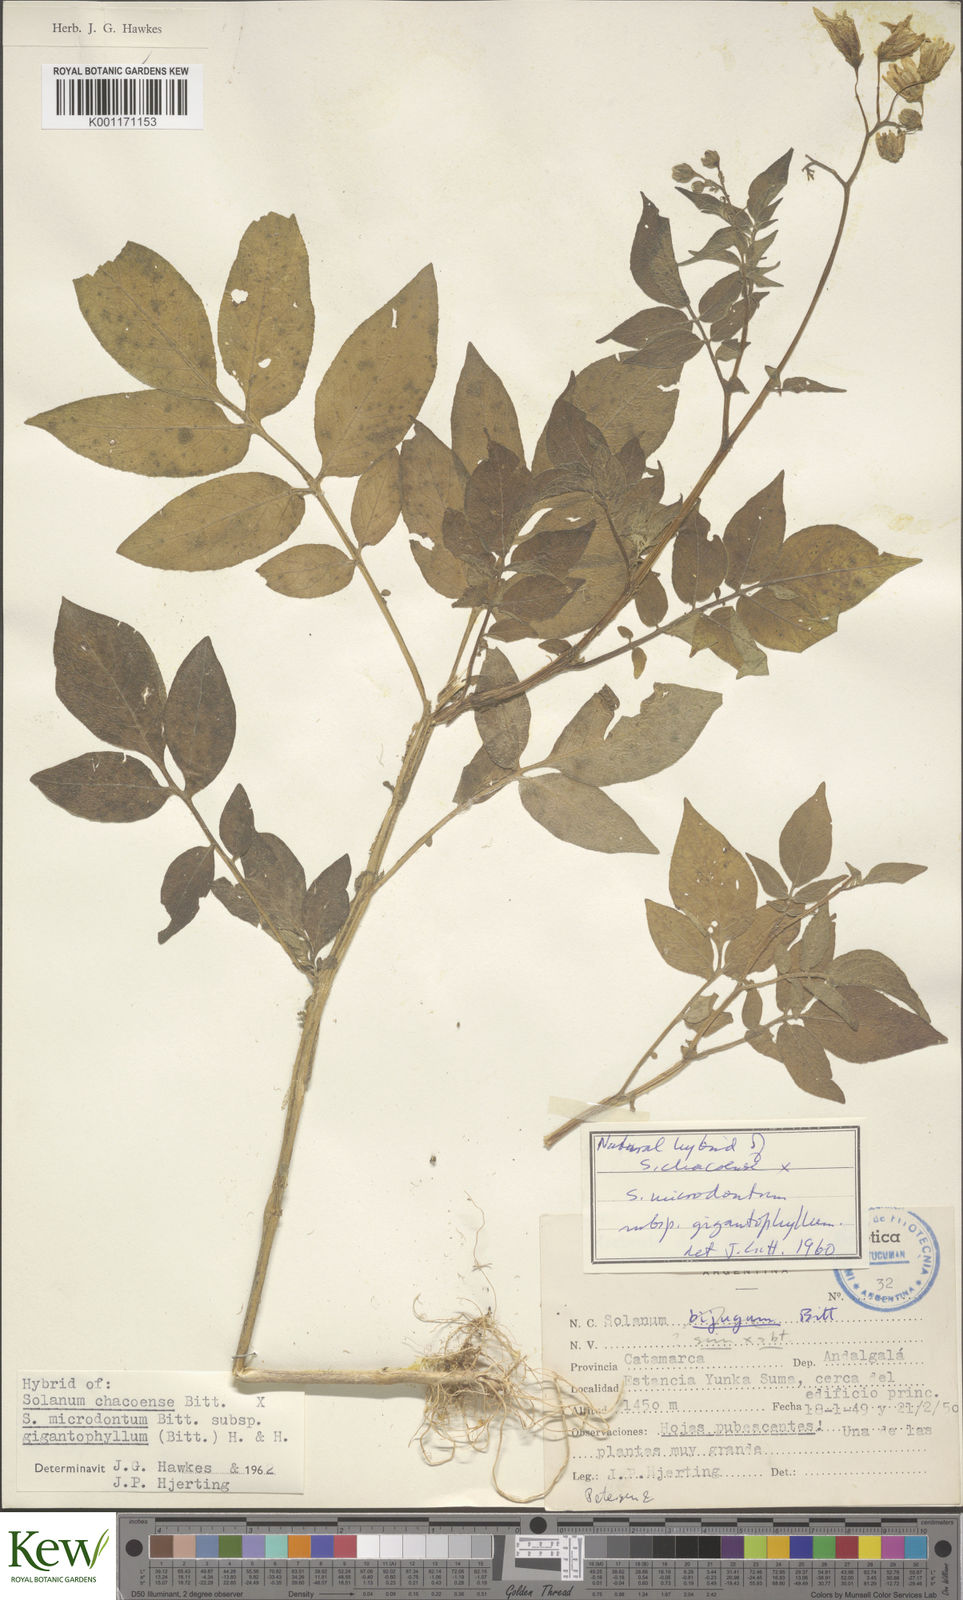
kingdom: Plantae
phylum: Tracheophyta
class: Magnoliopsida
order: Solanales
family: Solanaceae
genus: Solanum
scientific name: Solanum microdontum
